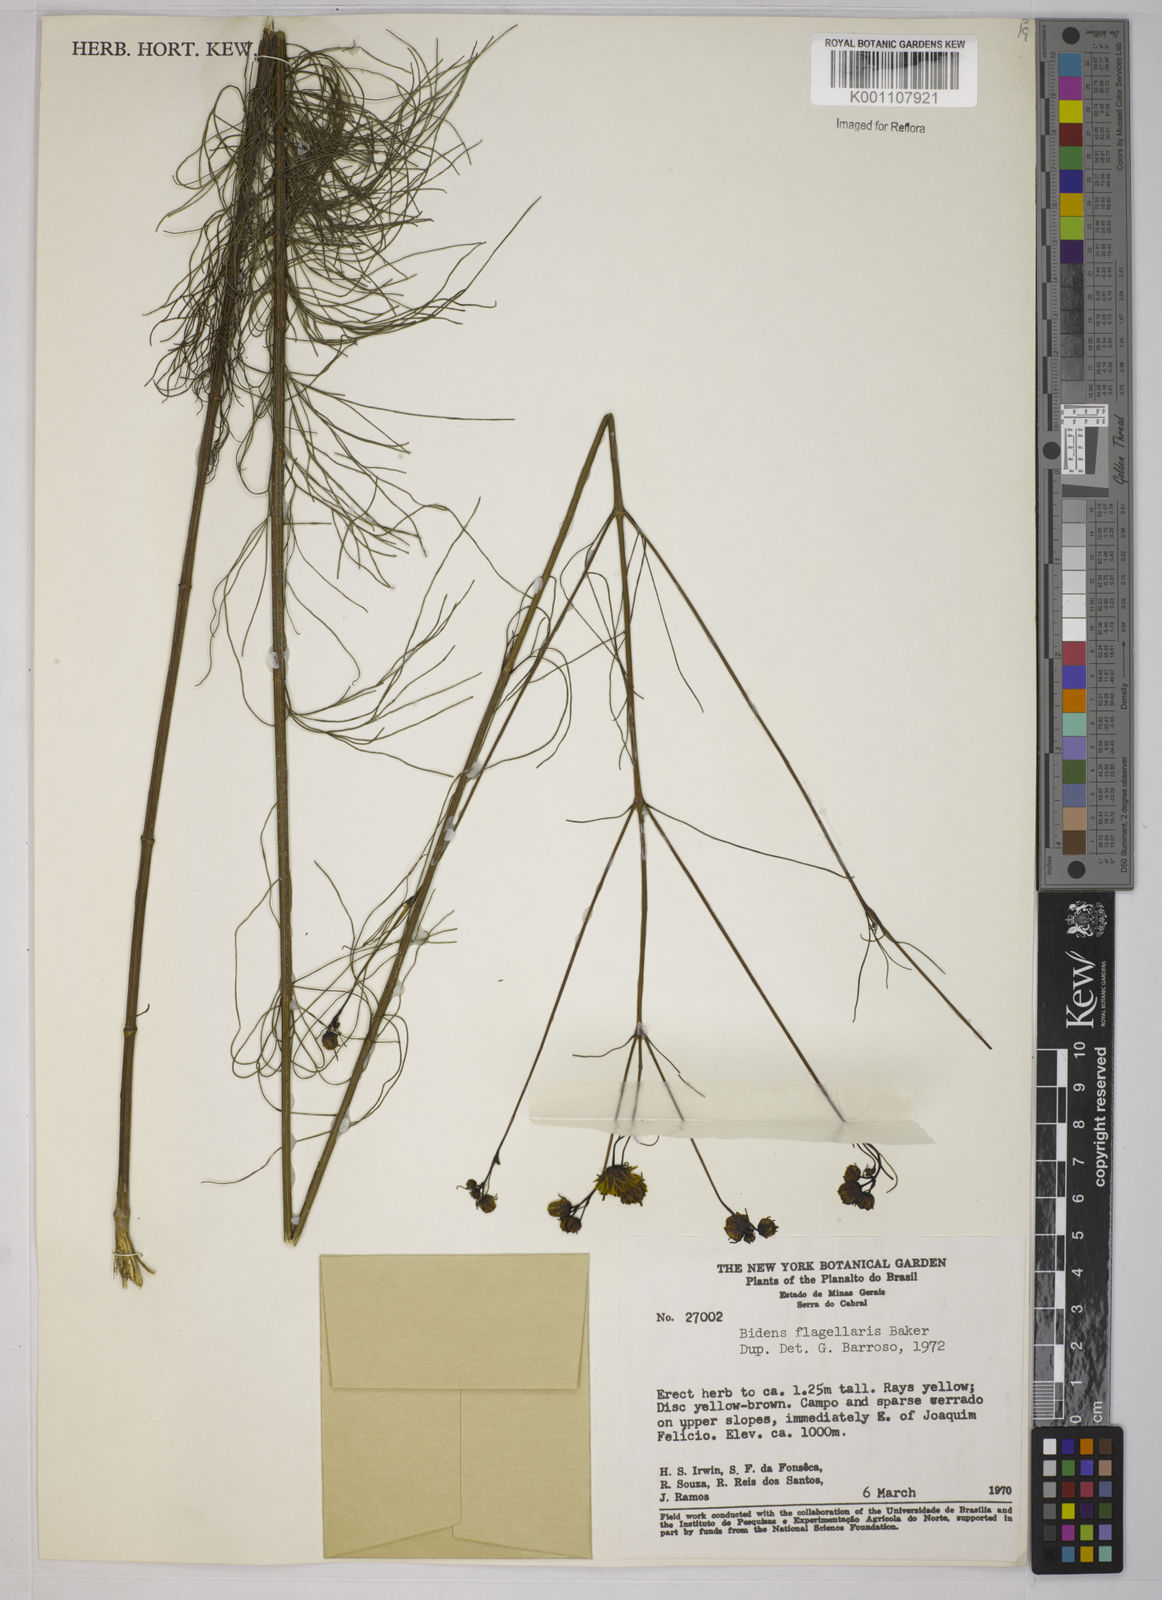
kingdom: Plantae
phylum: Tracheophyta
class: Magnoliopsida
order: Asterales
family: Asteraceae
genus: Bidens
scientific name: Bidens flagellaris
